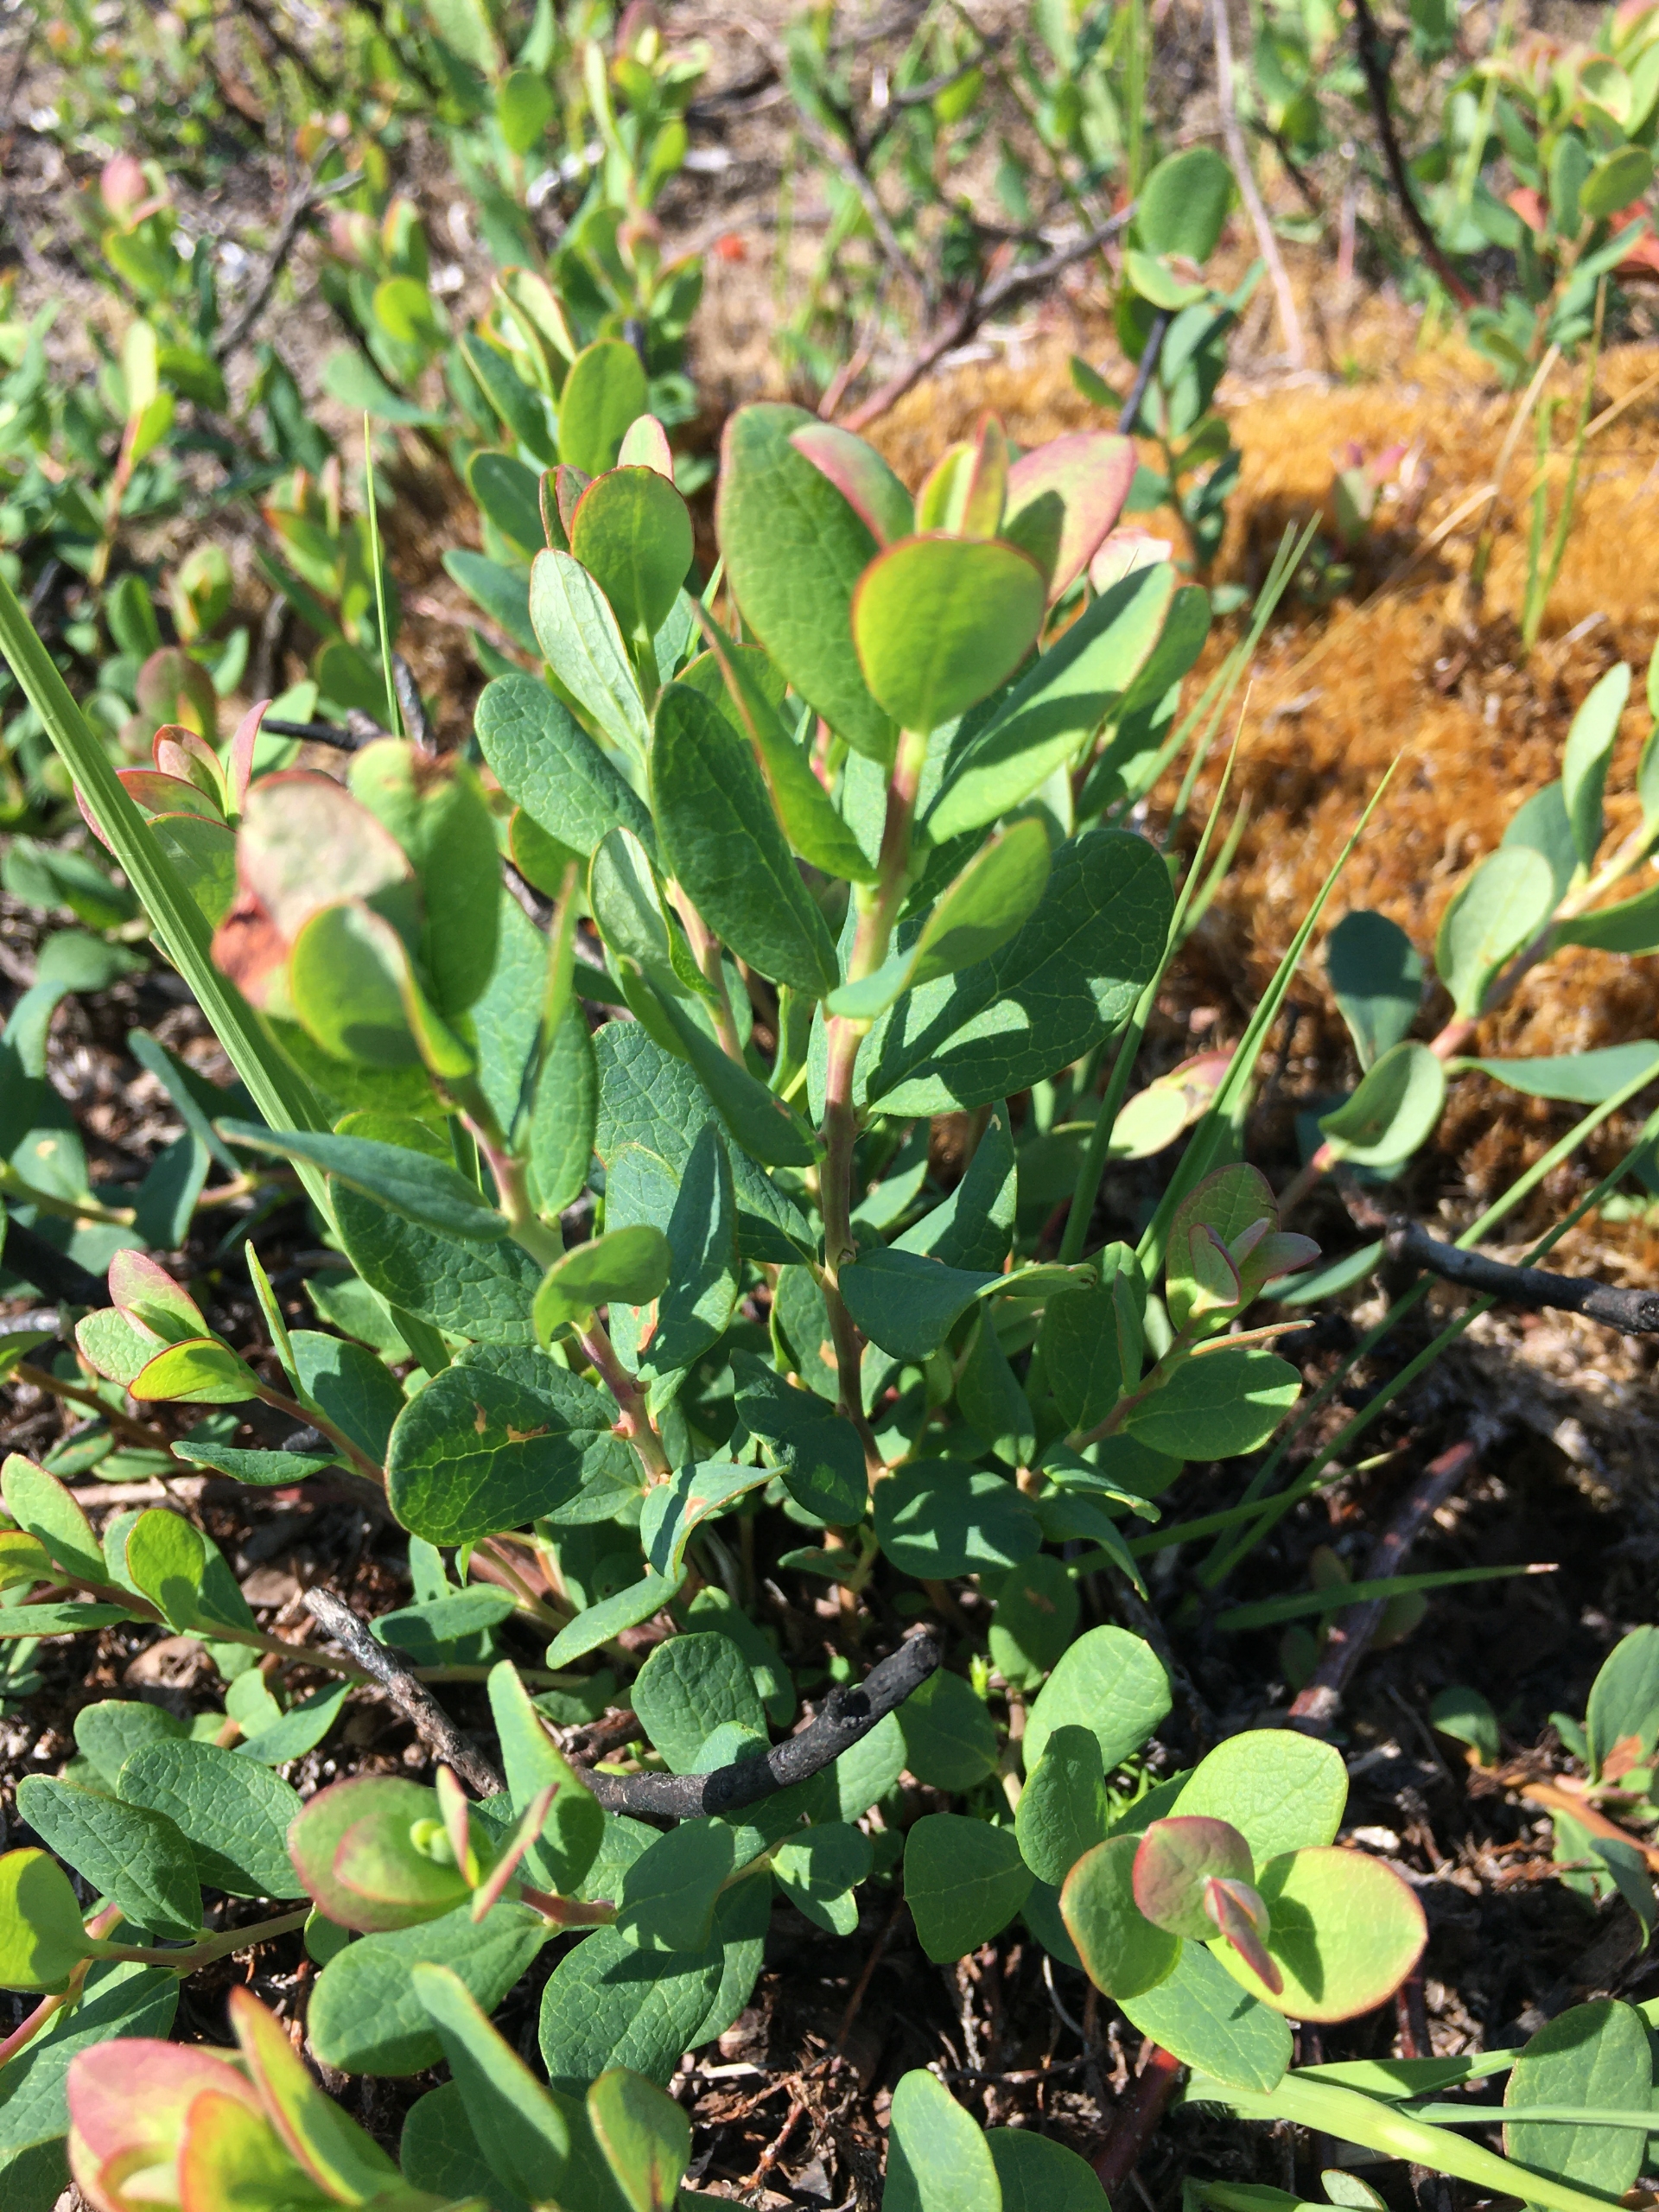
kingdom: Plantae
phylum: Tracheophyta
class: Magnoliopsida
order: Ericales
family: Ericaceae
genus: Vaccinium
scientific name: Vaccinium uliginosum
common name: Mose-bølle
